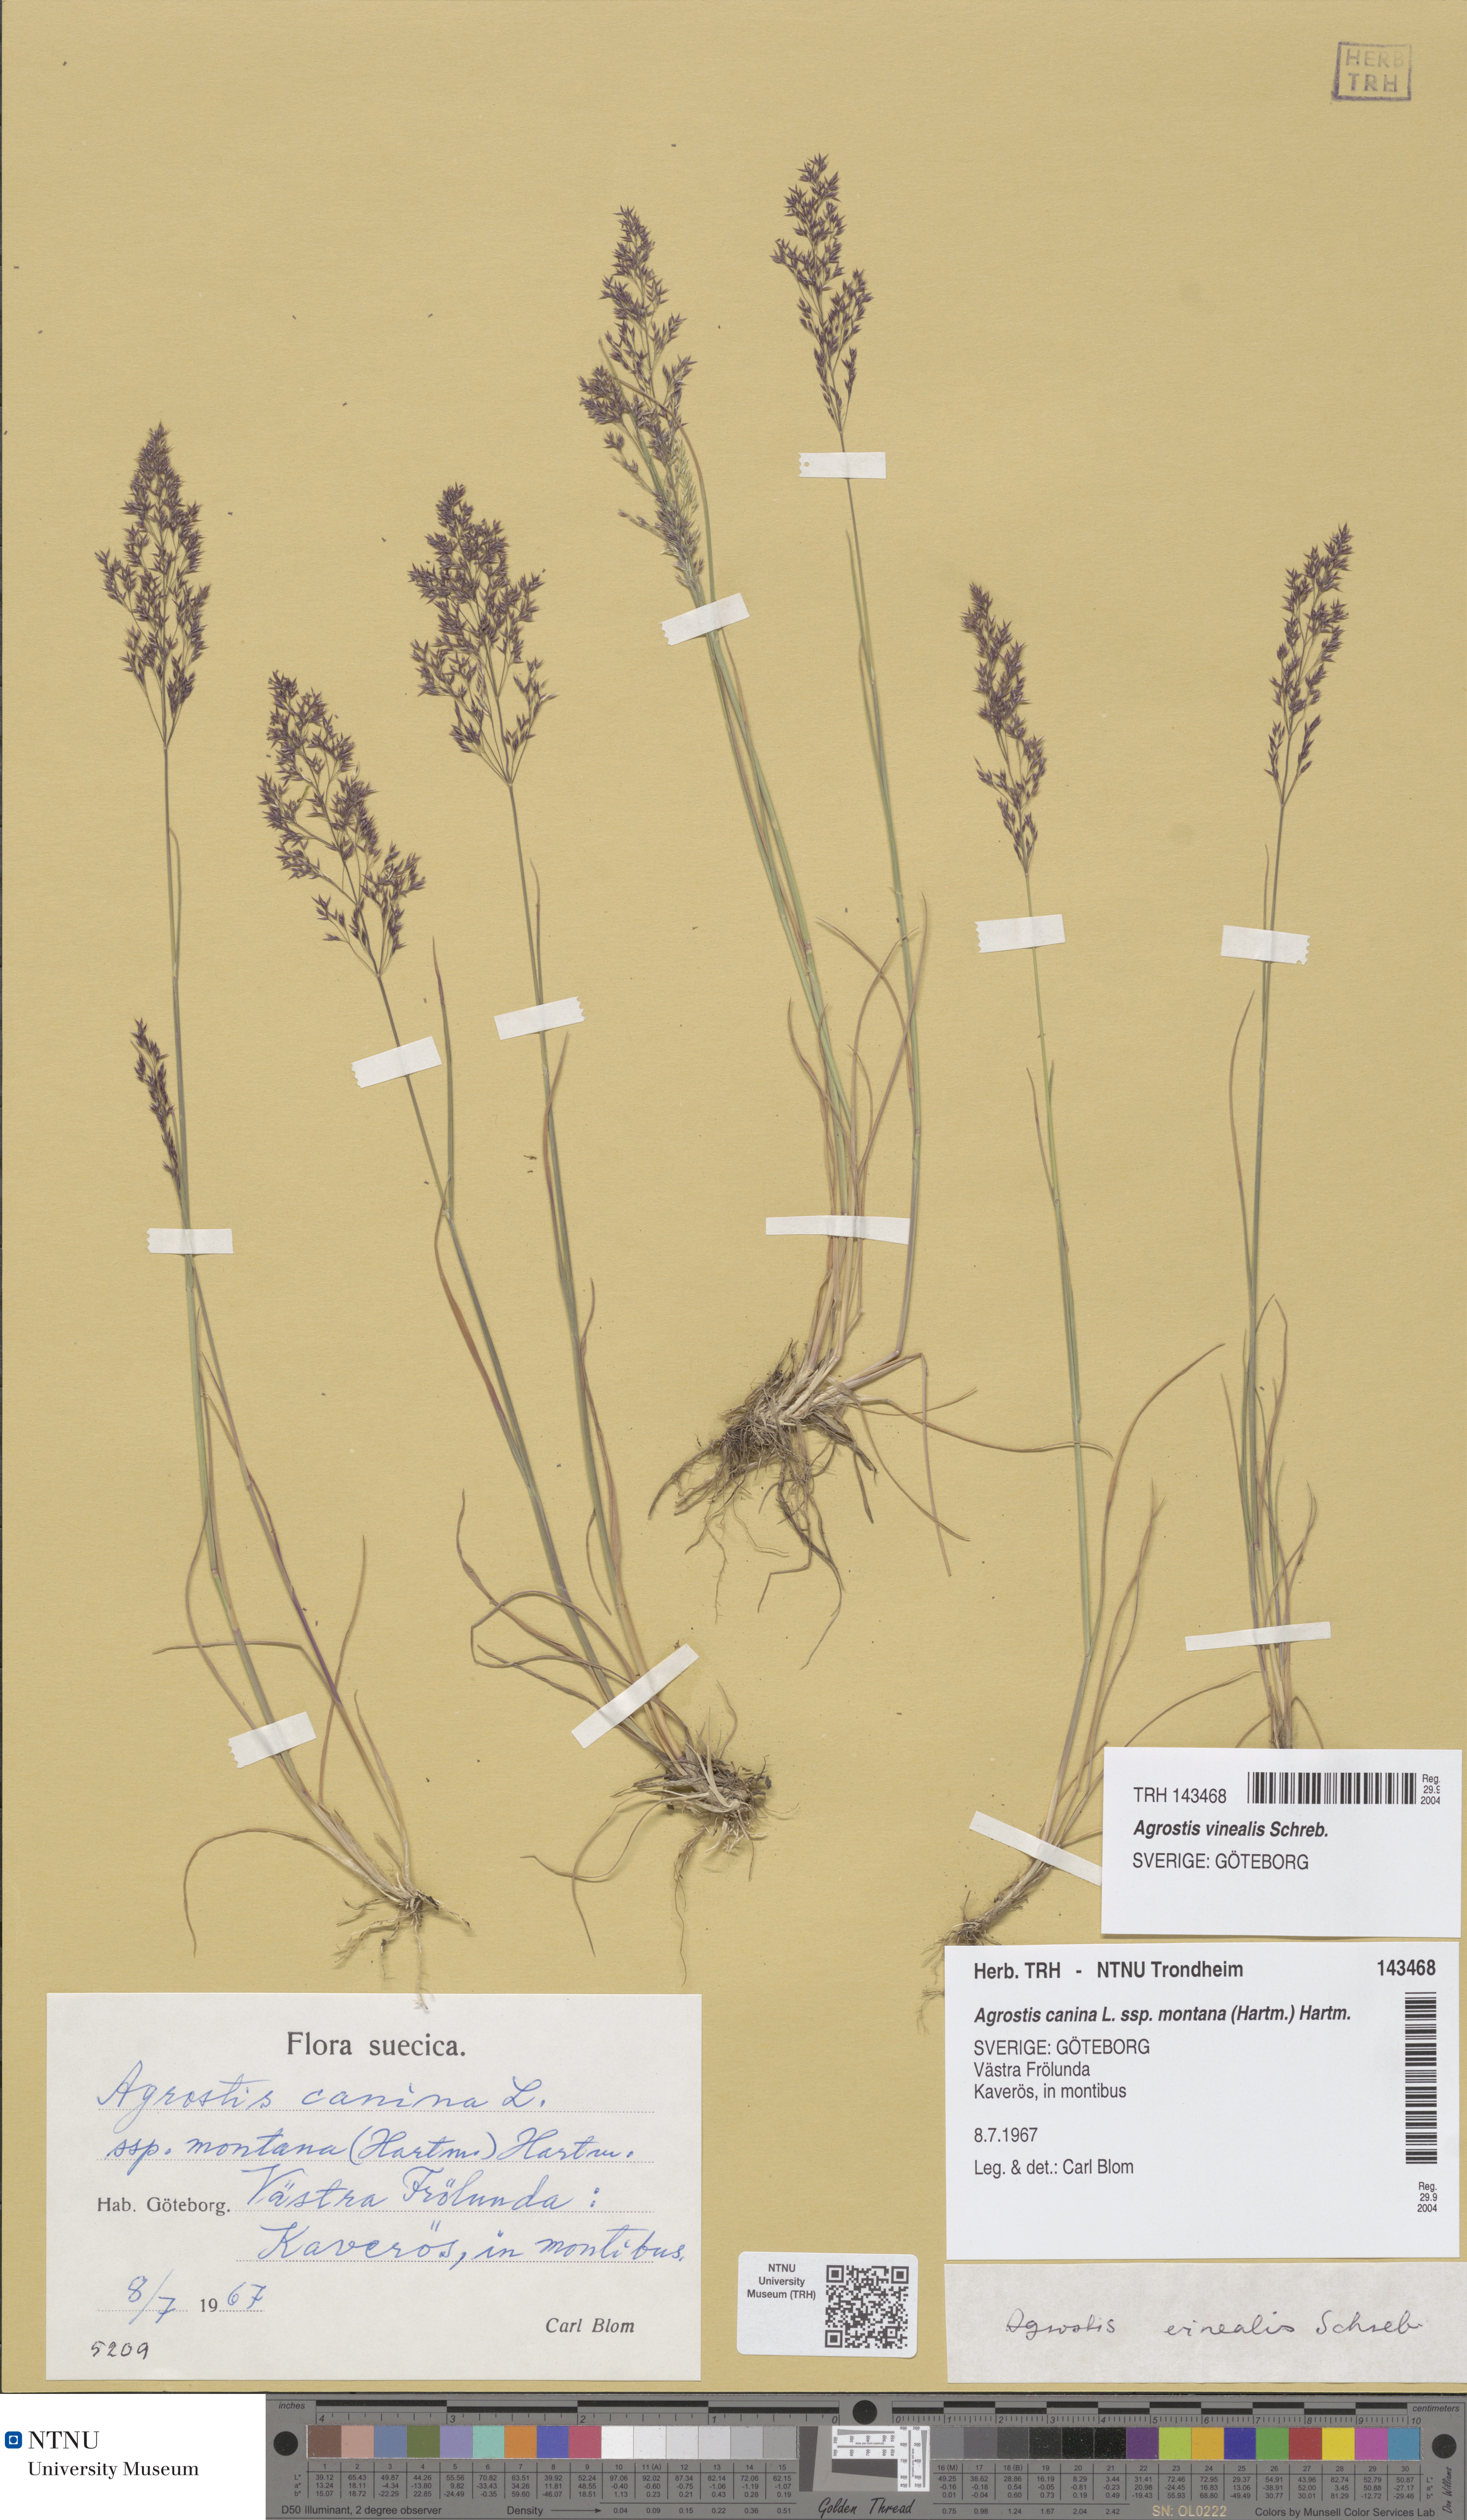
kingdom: Plantae
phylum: Tracheophyta
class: Liliopsida
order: Poales
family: Poaceae
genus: Agrostis
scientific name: Agrostis vinealis
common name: Brown bent
